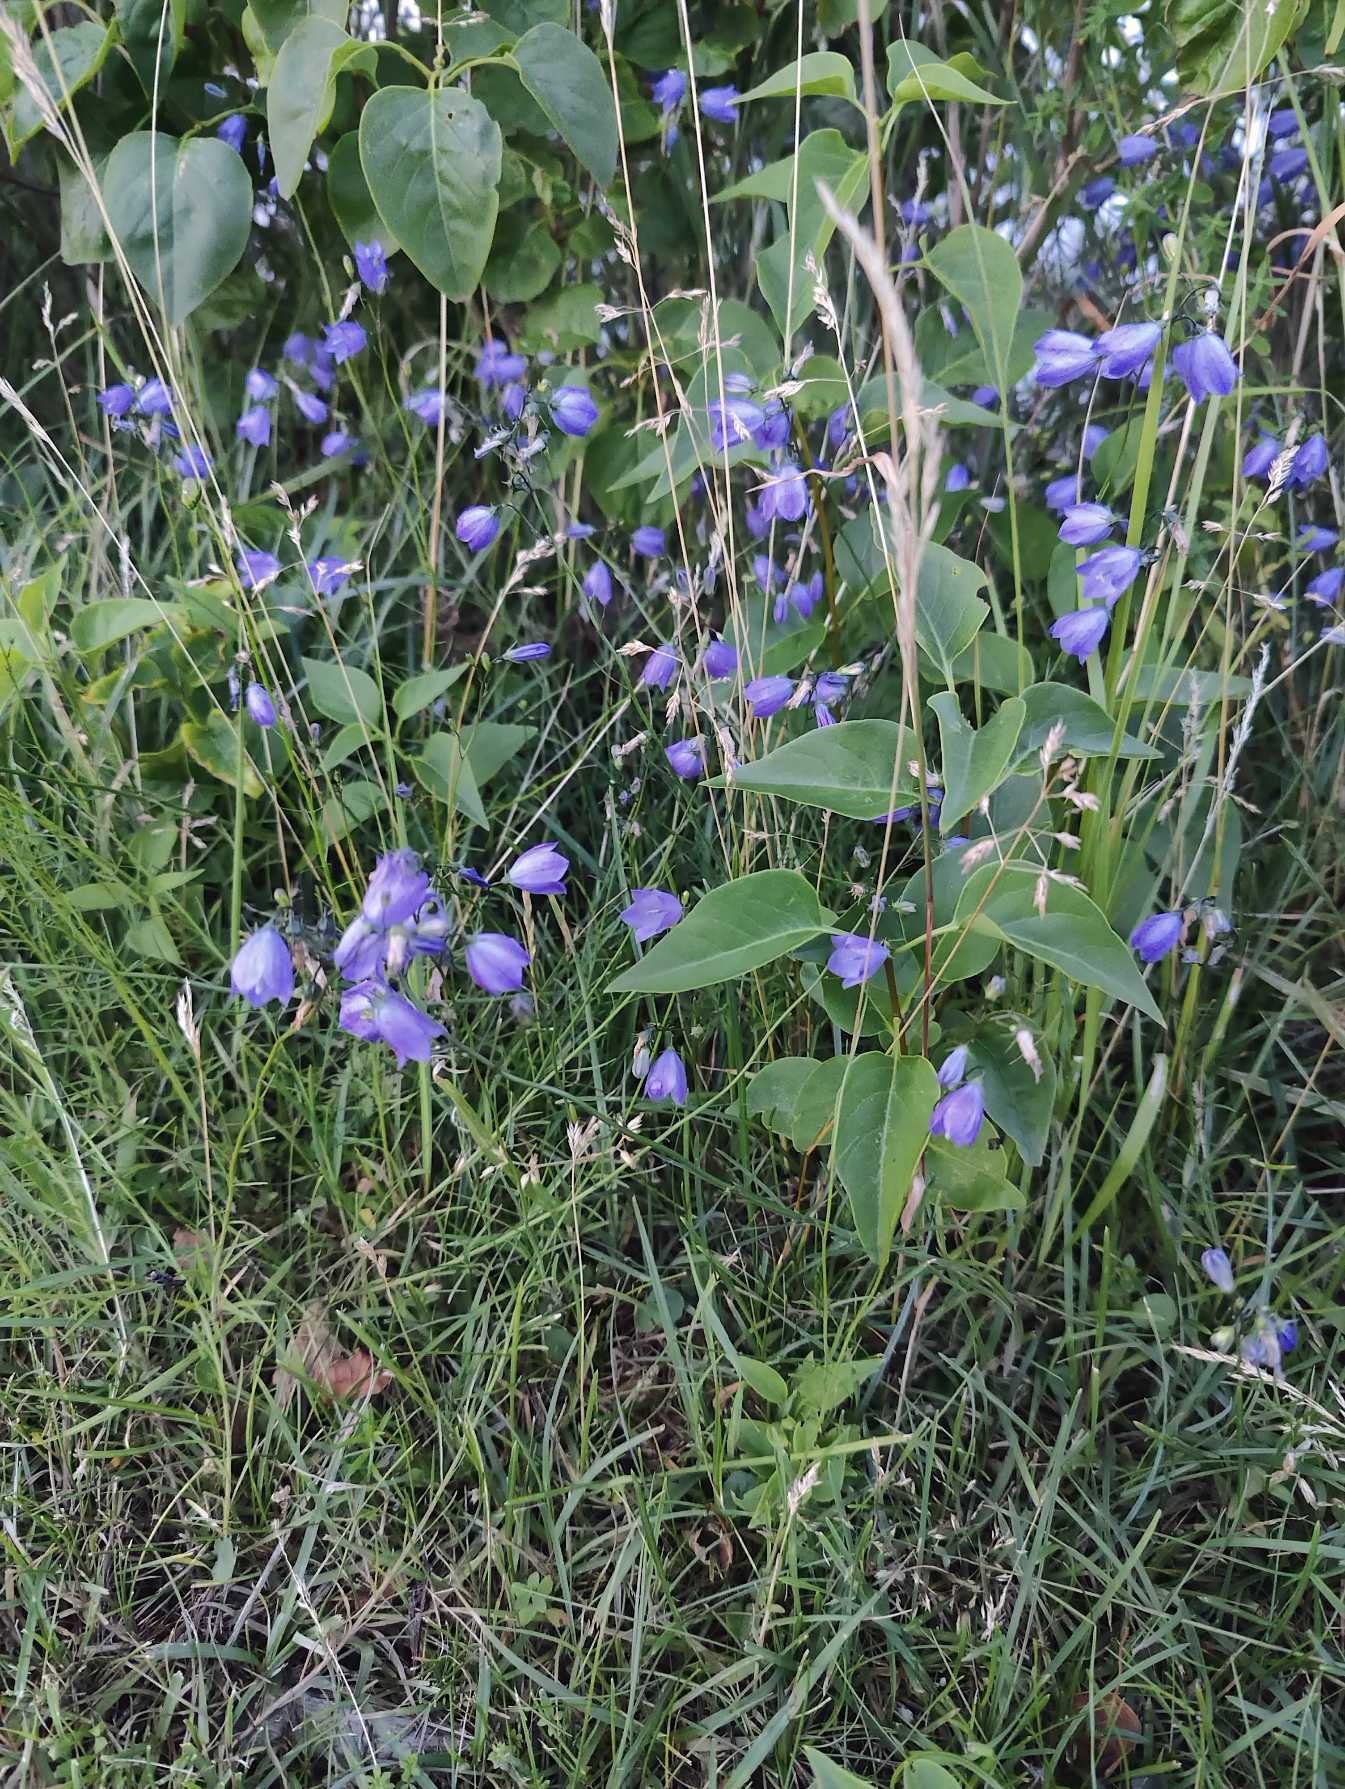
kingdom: Plantae
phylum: Tracheophyta
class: Magnoliopsida
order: Asterales
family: Campanulaceae
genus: Campanula
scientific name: Campanula rotundifolia
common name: Liden klokke
